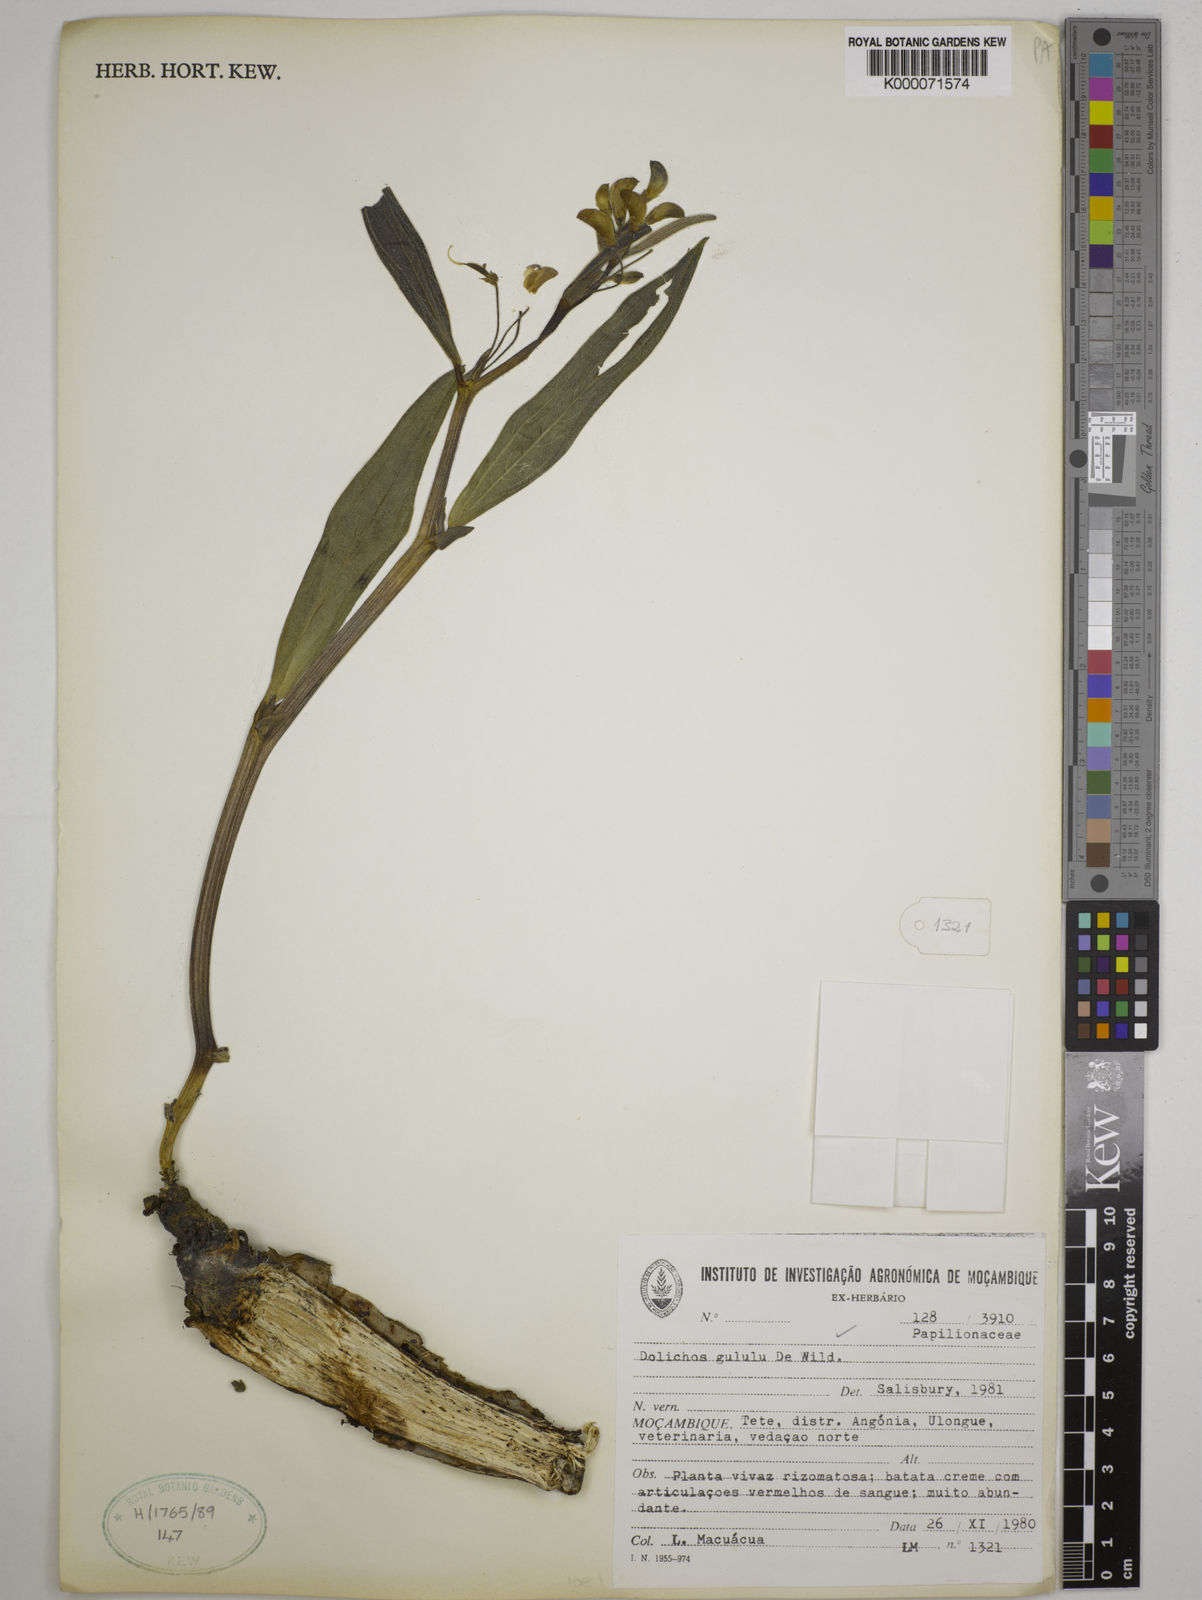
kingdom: Plantae
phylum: Tracheophyta
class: Magnoliopsida
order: Fabales
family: Fabaceae
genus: Dolichos
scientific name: Dolichos gululu
